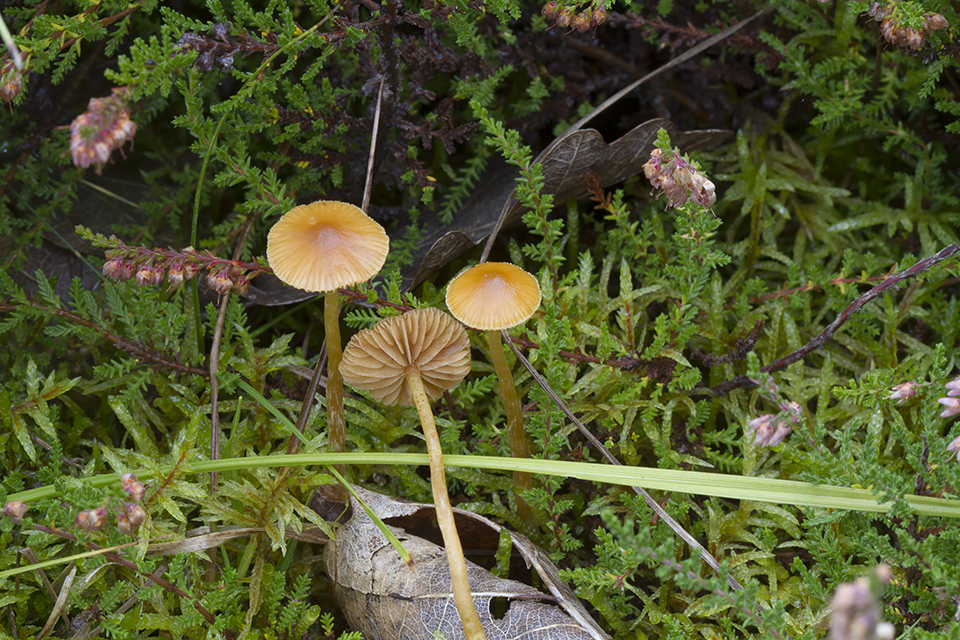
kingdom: Fungi
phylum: Basidiomycota
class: Agaricomycetes
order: Agaricales
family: Hymenogastraceae
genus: Galerina
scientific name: Galerina pumila
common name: honninggul hjelmhat
